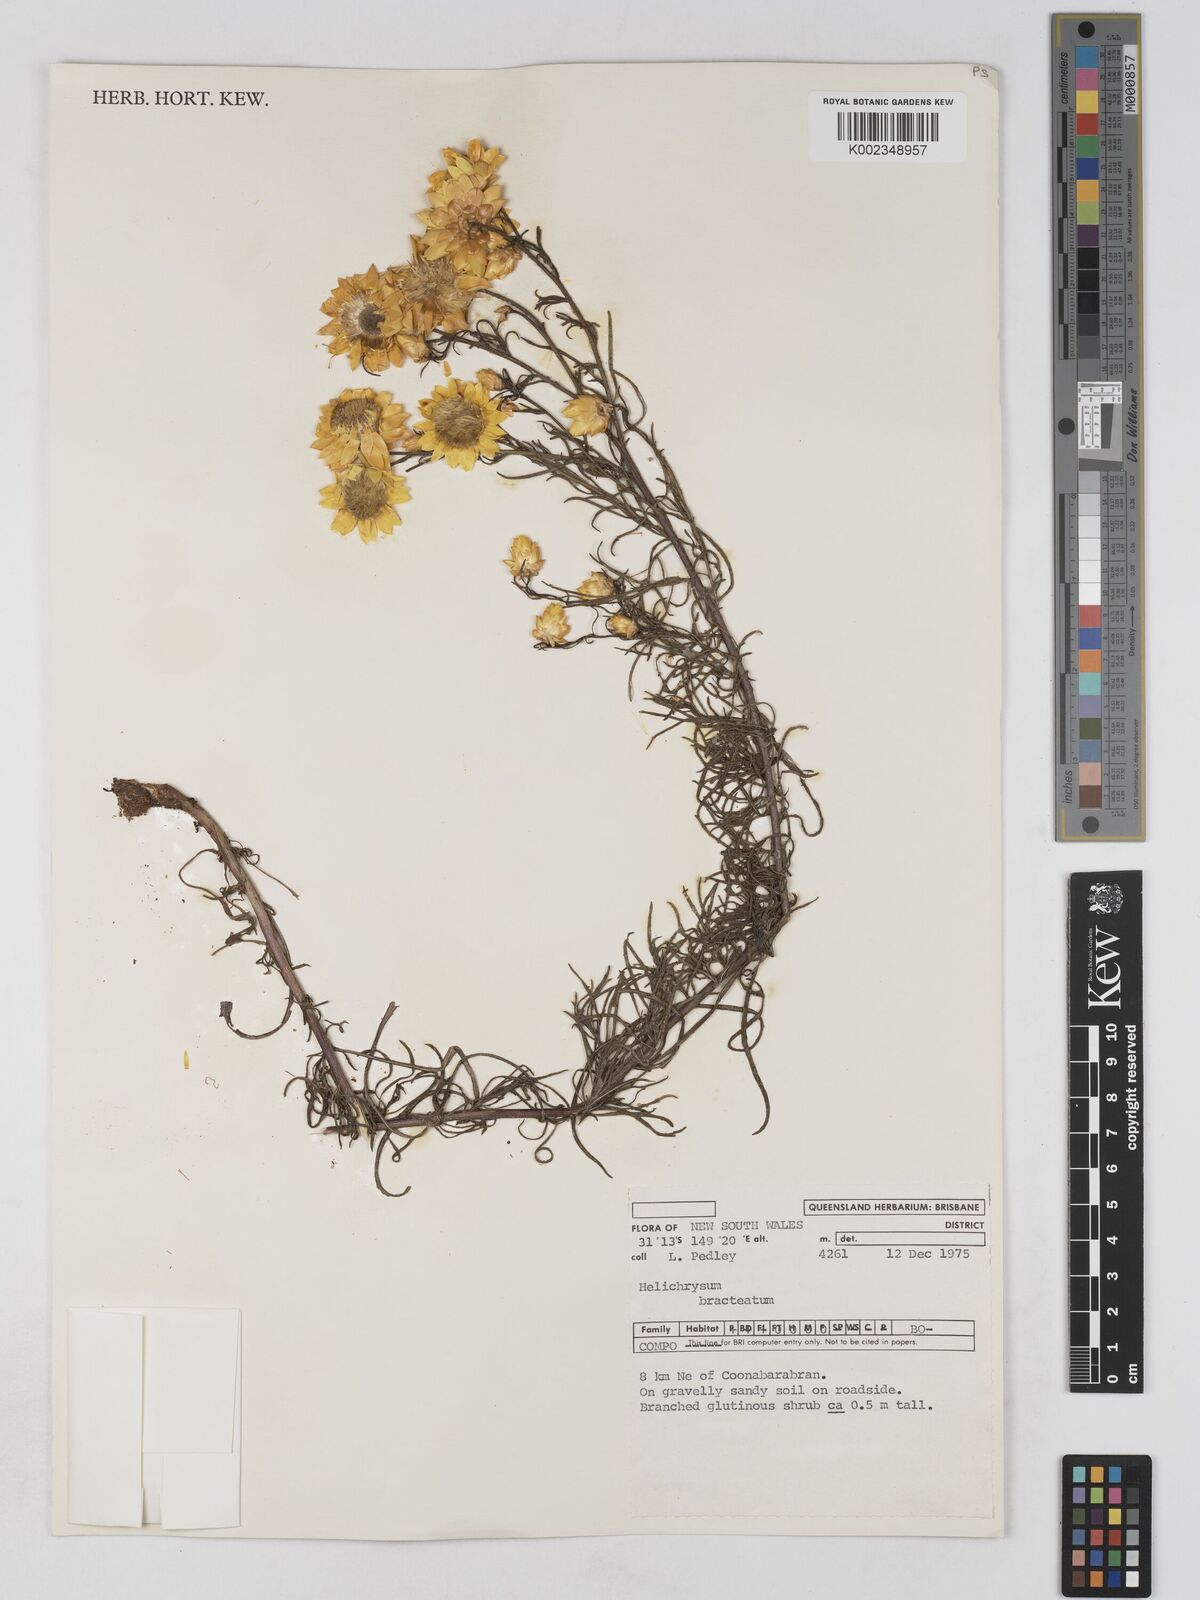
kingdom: Plantae
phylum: Tracheophyta
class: Magnoliopsida
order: Asterales
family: Asteraceae
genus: Xerochrysum
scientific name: Xerochrysum bracteatum
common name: Bracted strawflower
